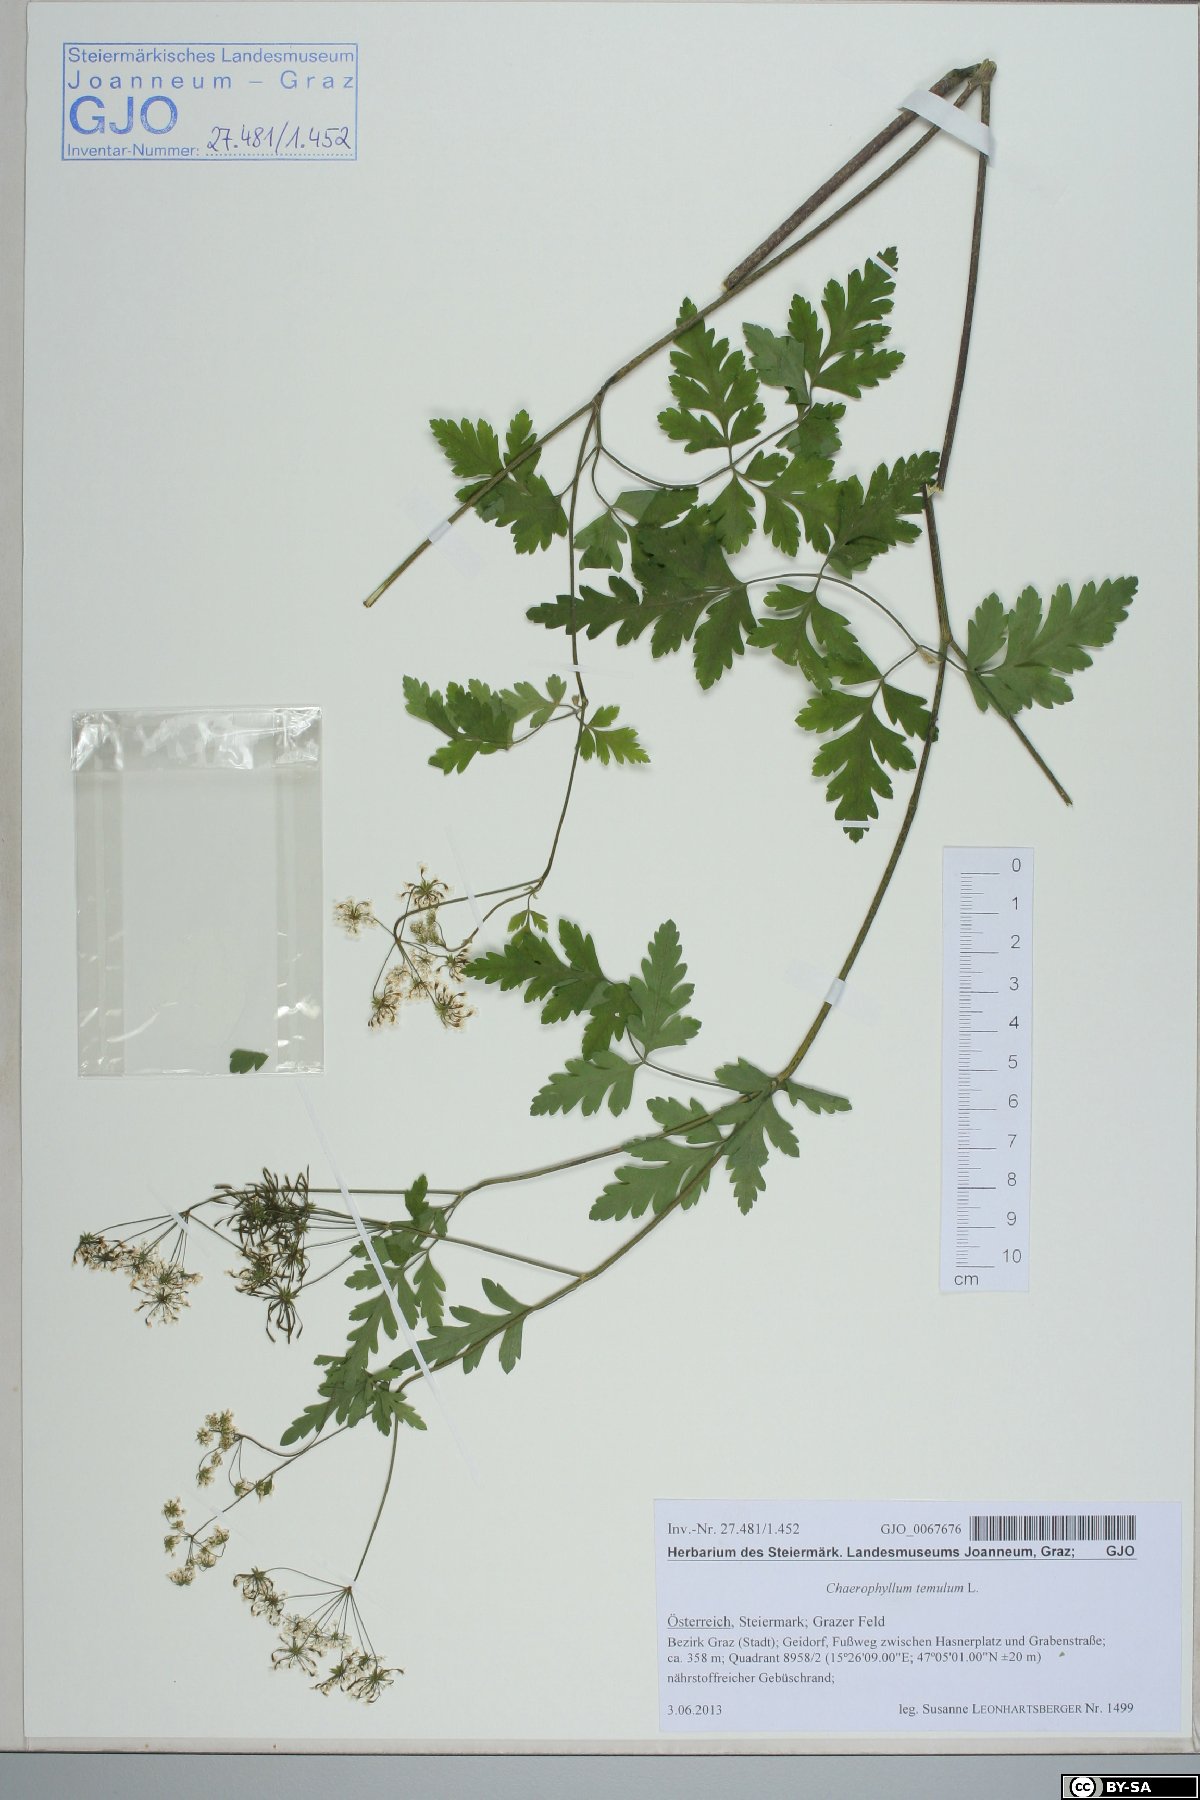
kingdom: Plantae
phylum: Tracheophyta
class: Magnoliopsida
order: Apiales
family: Apiaceae
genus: Chaerophyllum
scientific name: Chaerophyllum temulum
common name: Rough chervil
